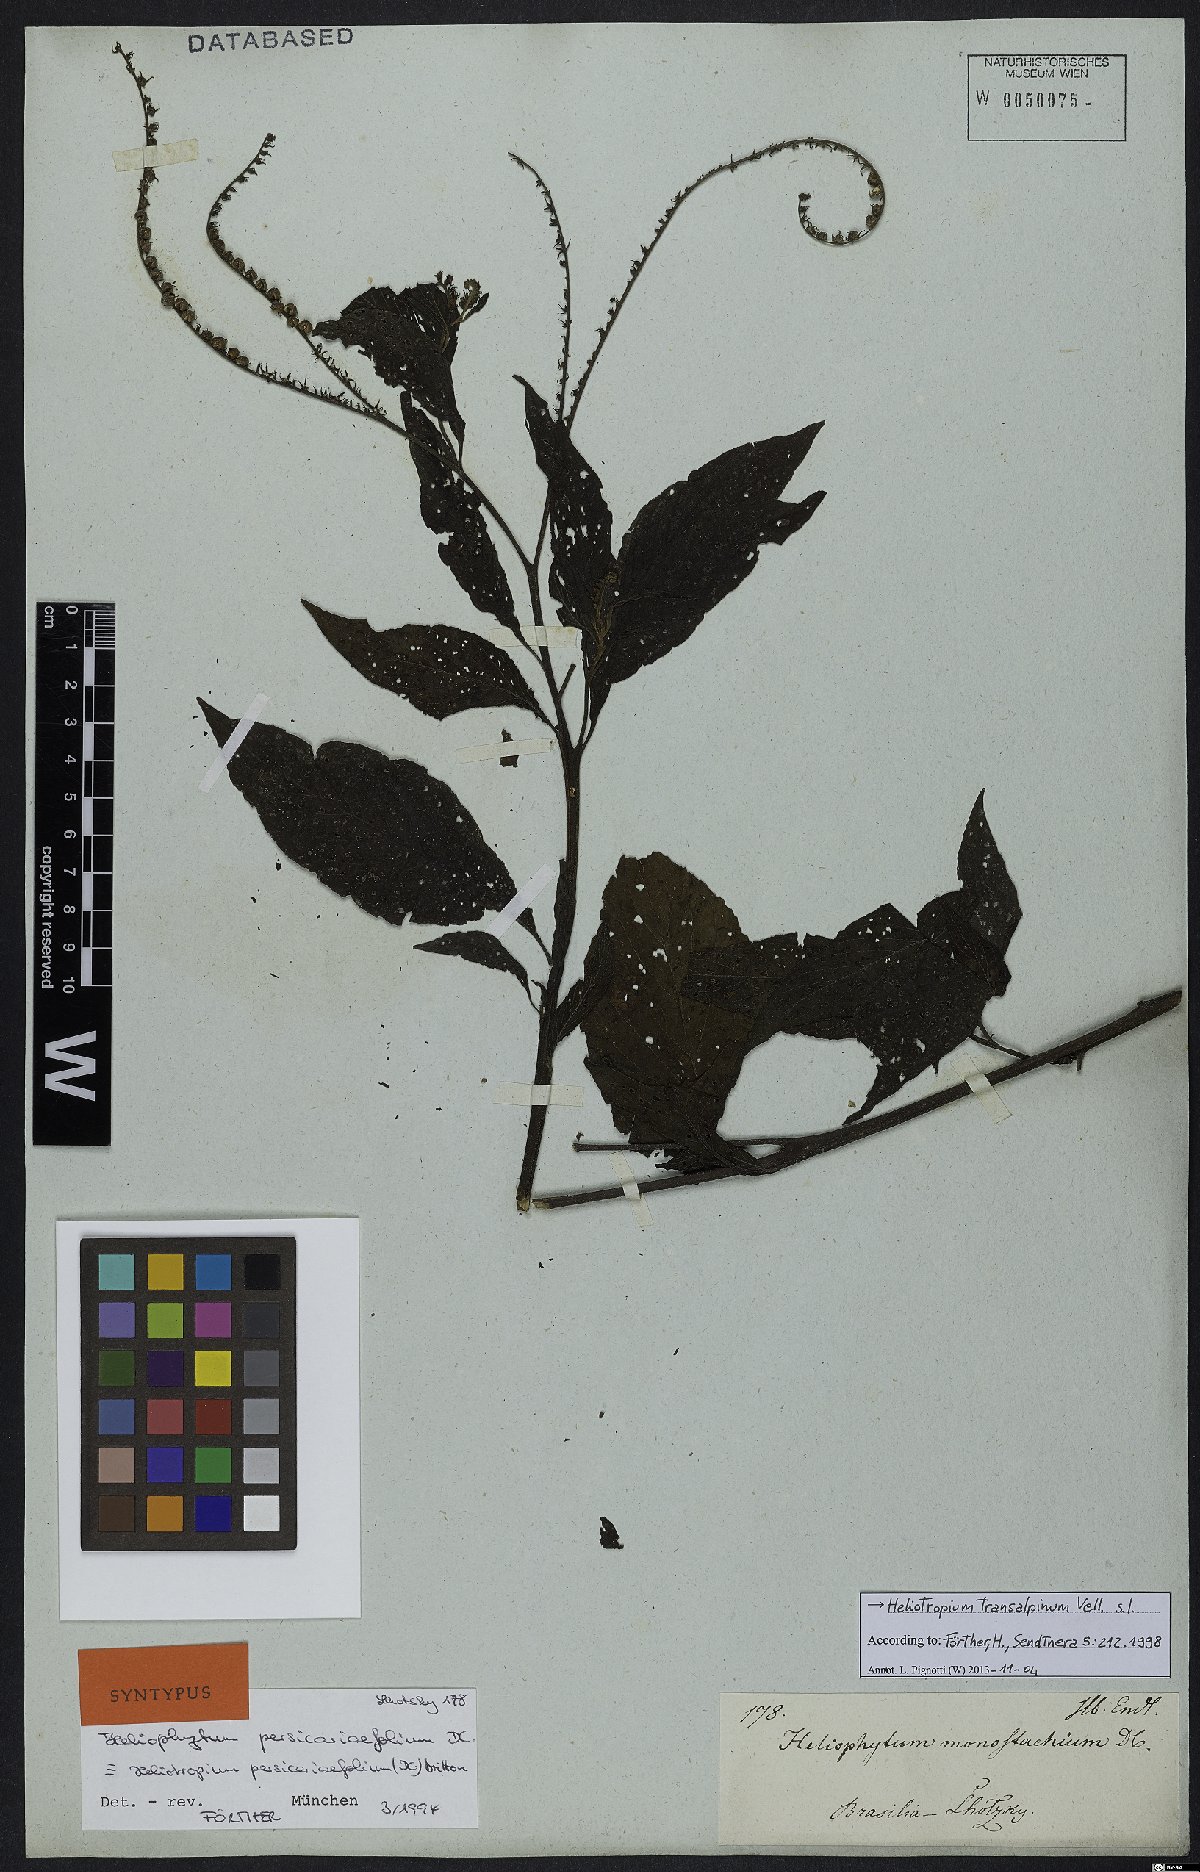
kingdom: Plantae
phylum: Tracheophyta
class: Magnoliopsida
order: Boraginales
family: Heliotropiaceae
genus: Heliotropium
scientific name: Heliotropium transalpinum
